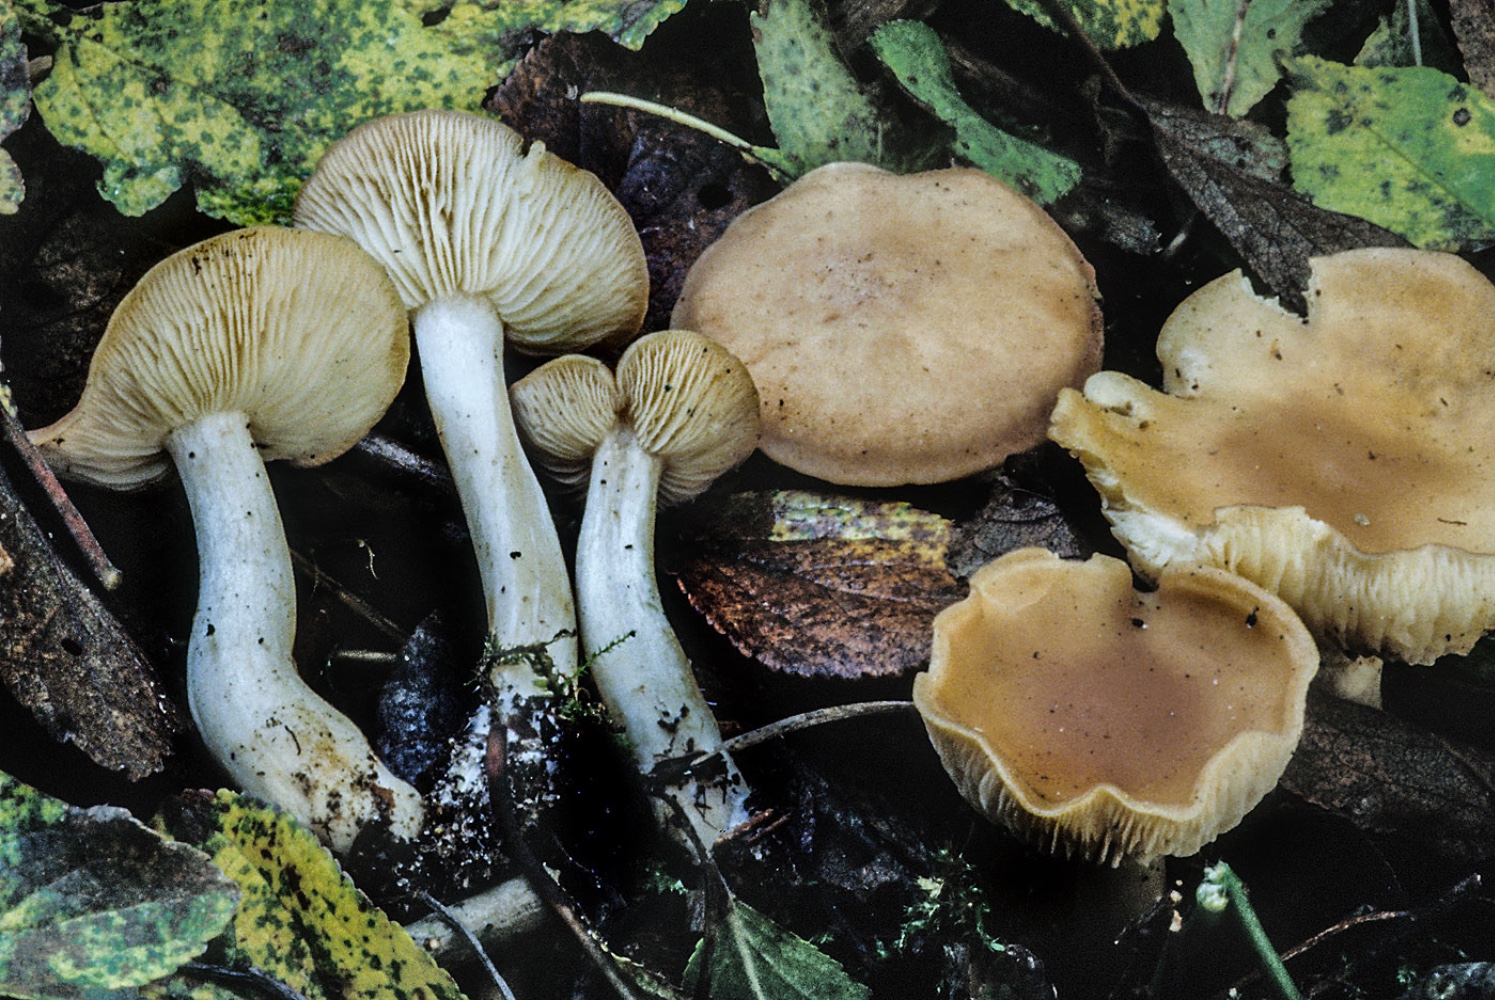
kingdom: Fungi
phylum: Basidiomycota
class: Agaricomycetes
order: Agaricales
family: Lyophyllaceae
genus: Gerhardtia
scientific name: Gerhardtia borealis
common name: rosabrun fagerhat
